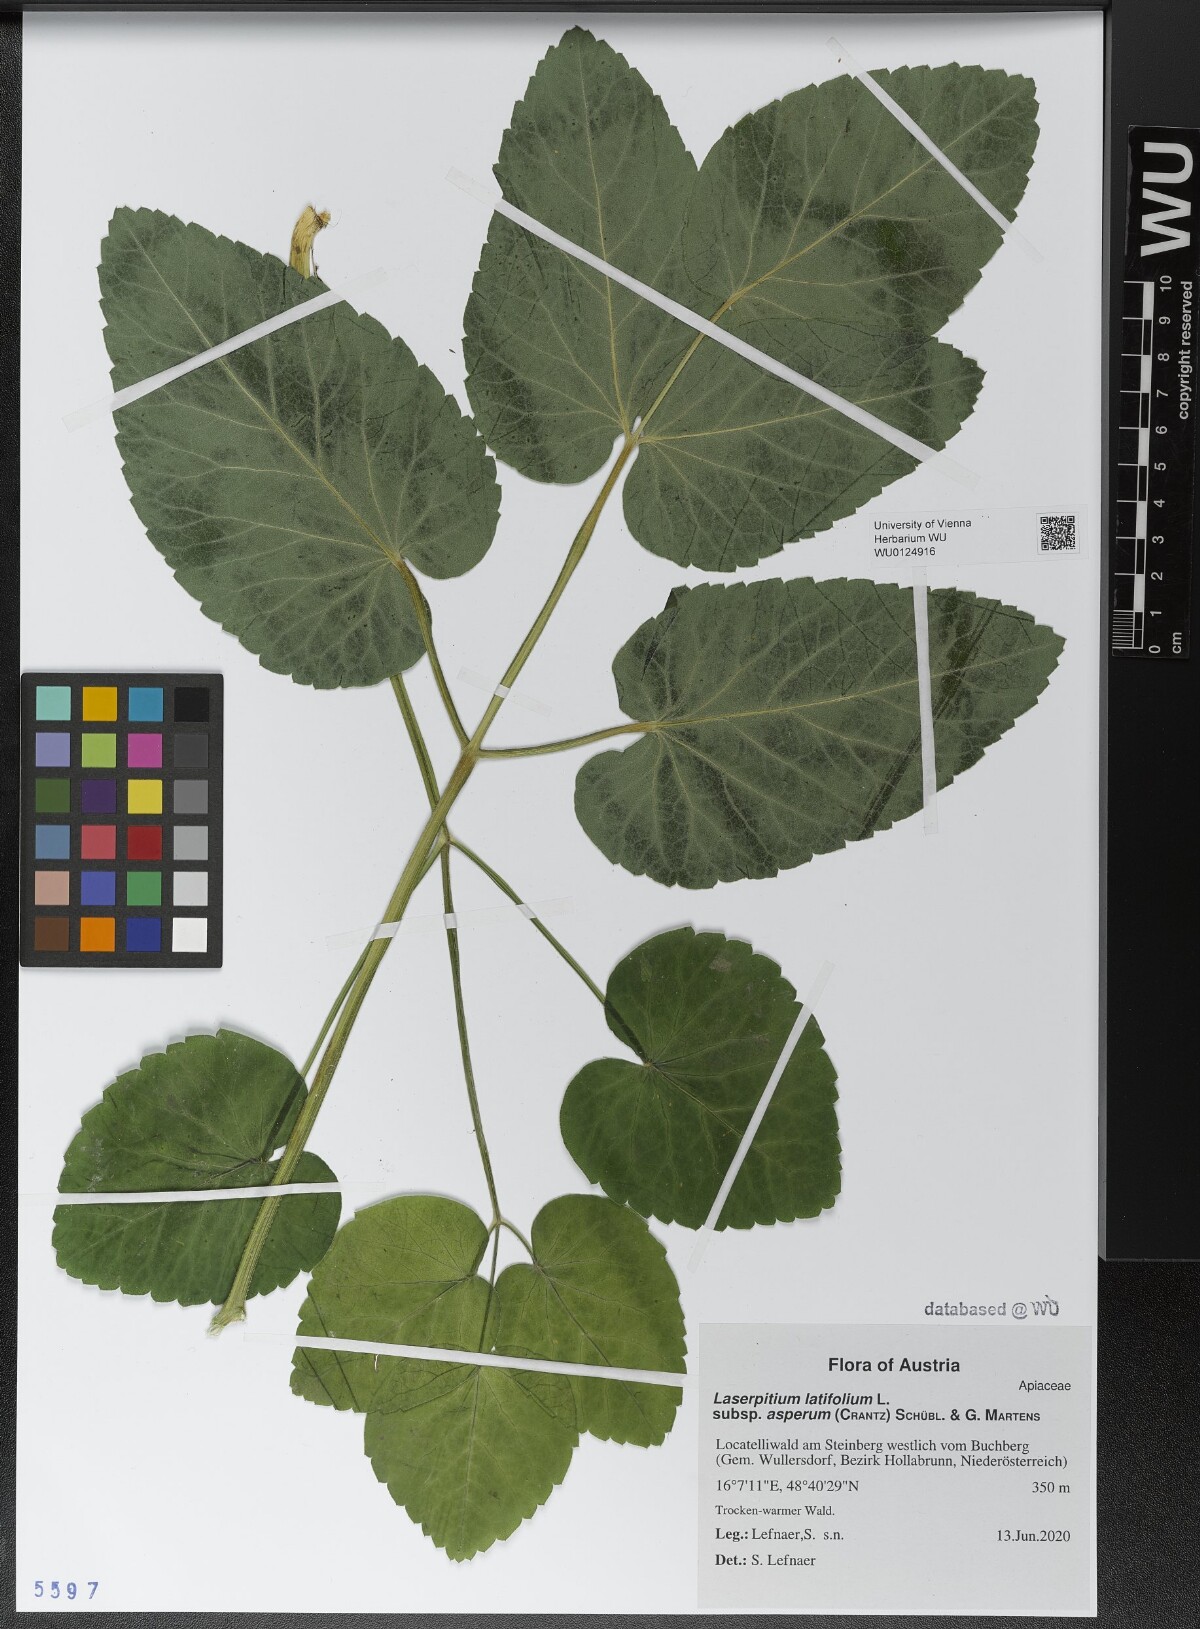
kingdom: Plantae
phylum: Tracheophyta
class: Magnoliopsida
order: Apiales
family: Apiaceae
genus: Laserpitium
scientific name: Laserpitium latifolium
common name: Broadleaf sermountain
